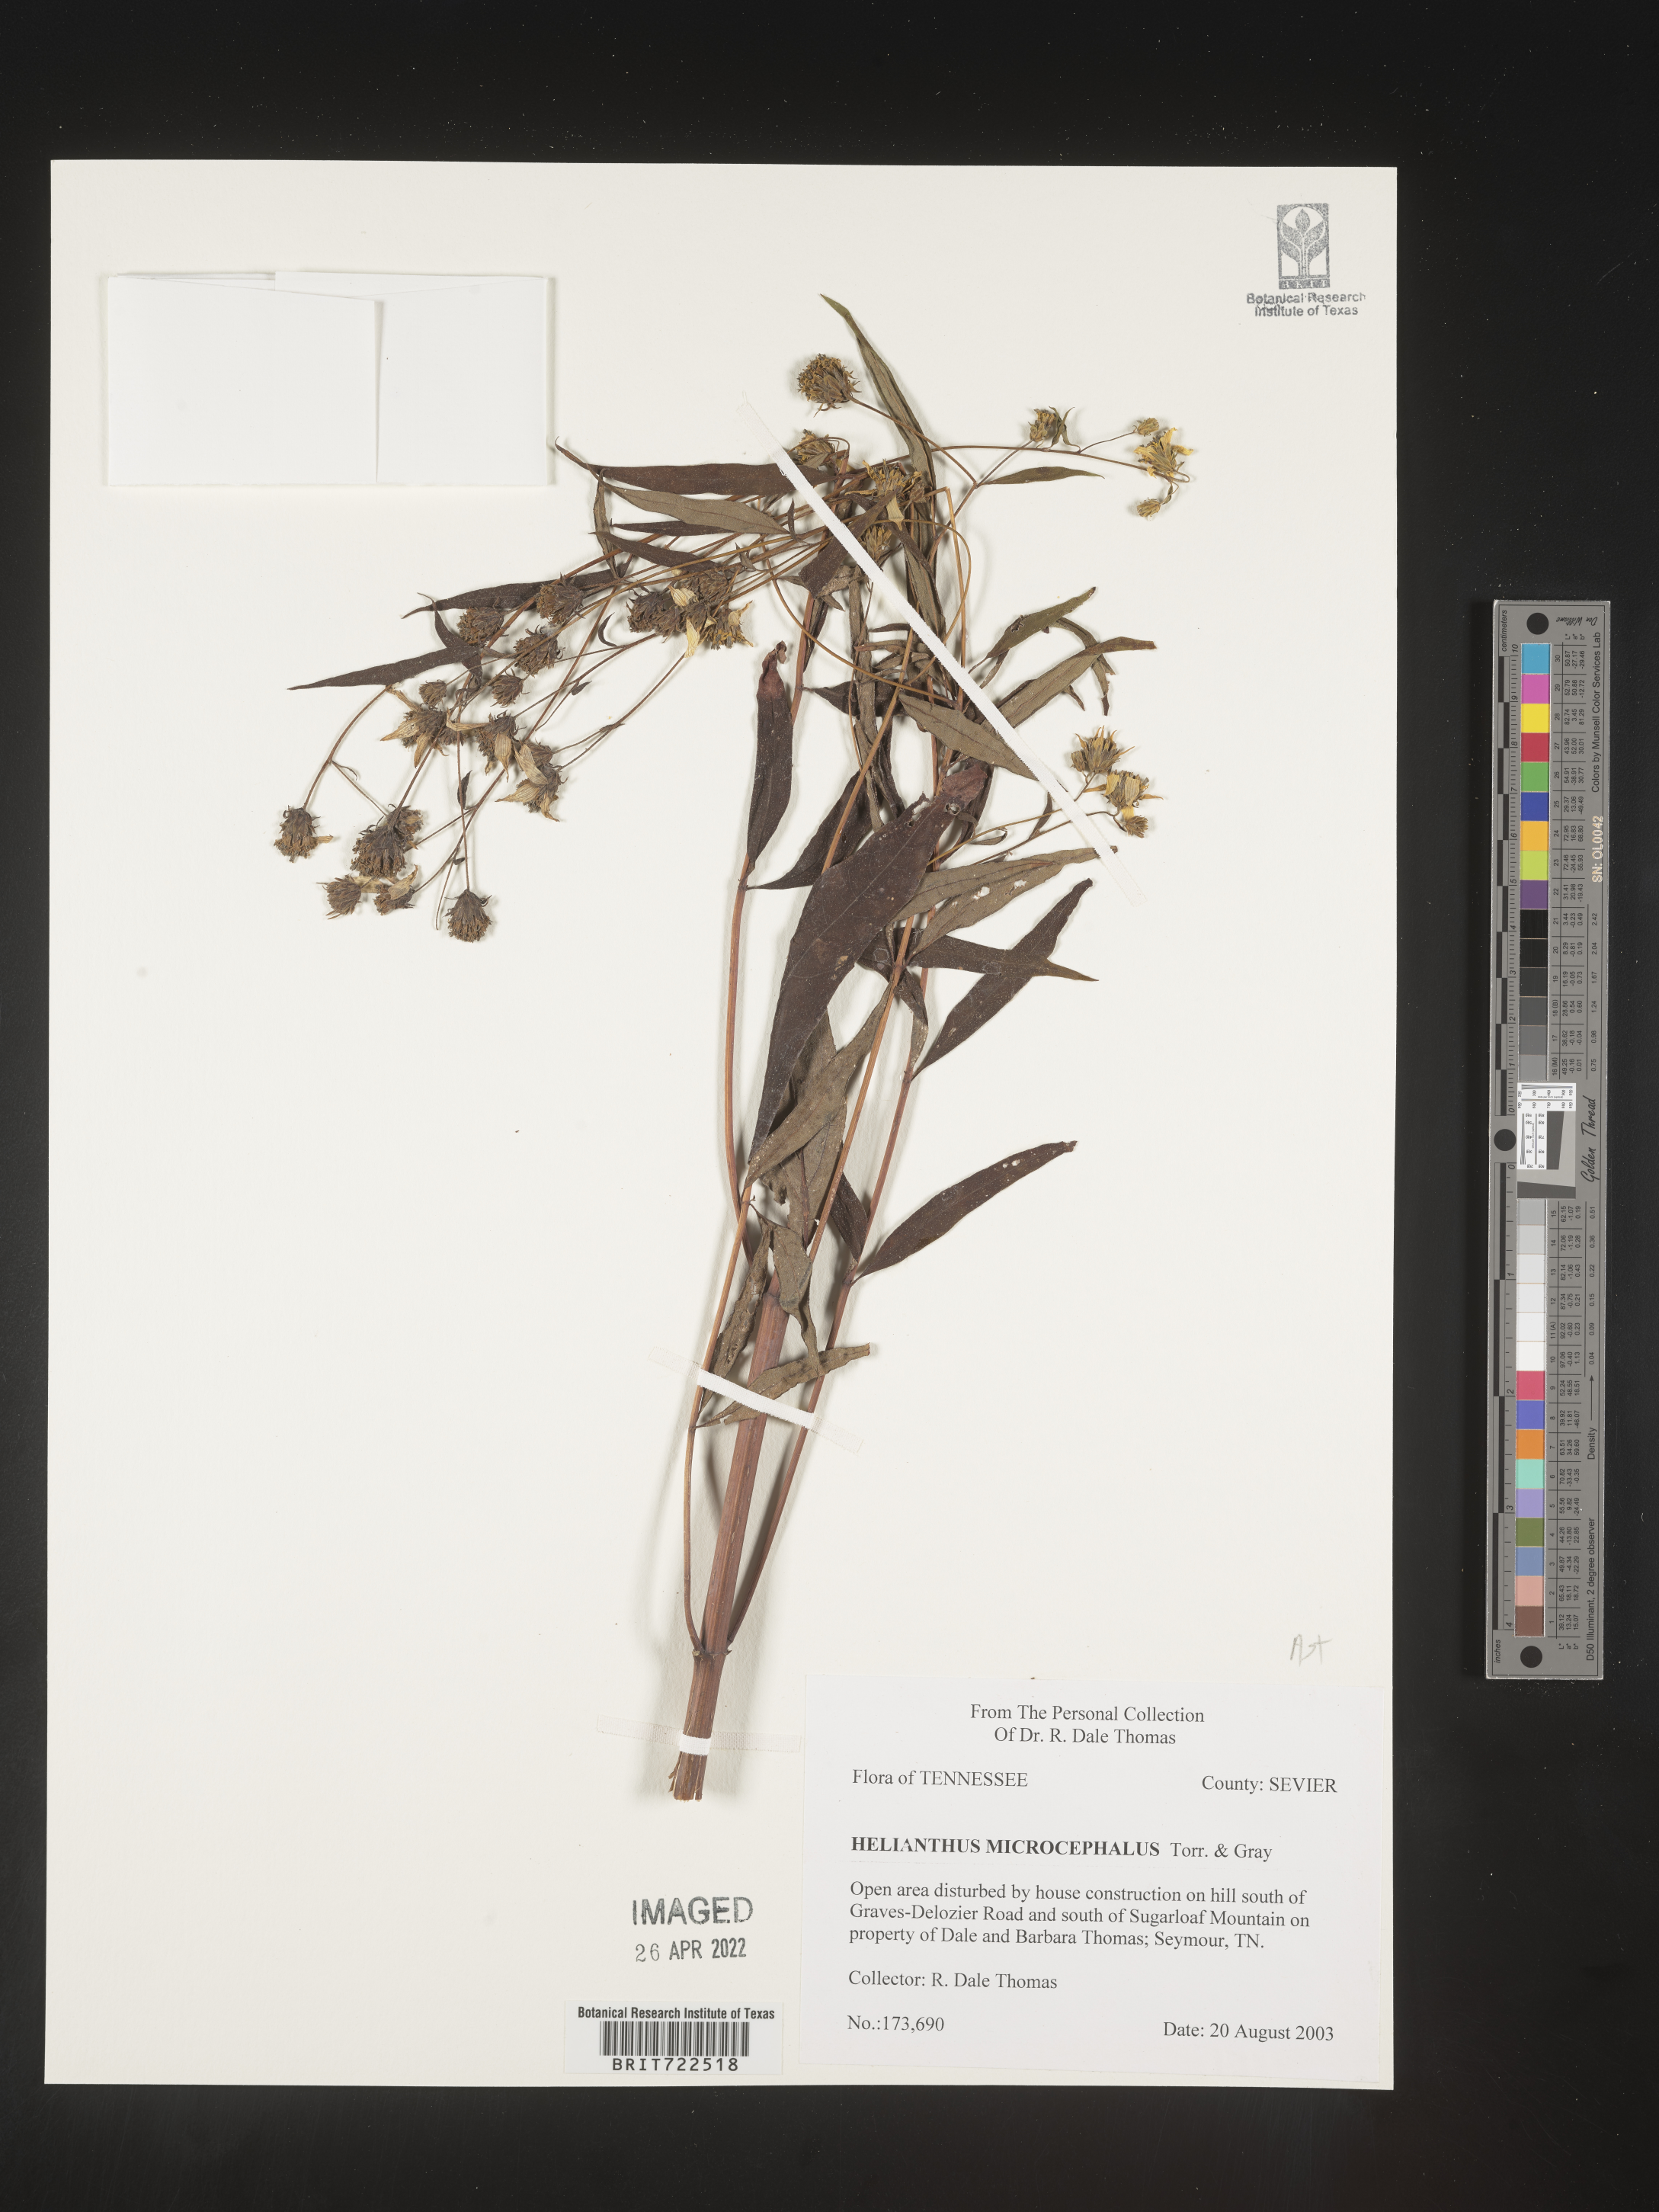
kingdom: Plantae
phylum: Tracheophyta
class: Magnoliopsida
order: Asterales
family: Asteraceae
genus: Helianthus
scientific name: Helianthus microcephalus
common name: Woodland sunflower
